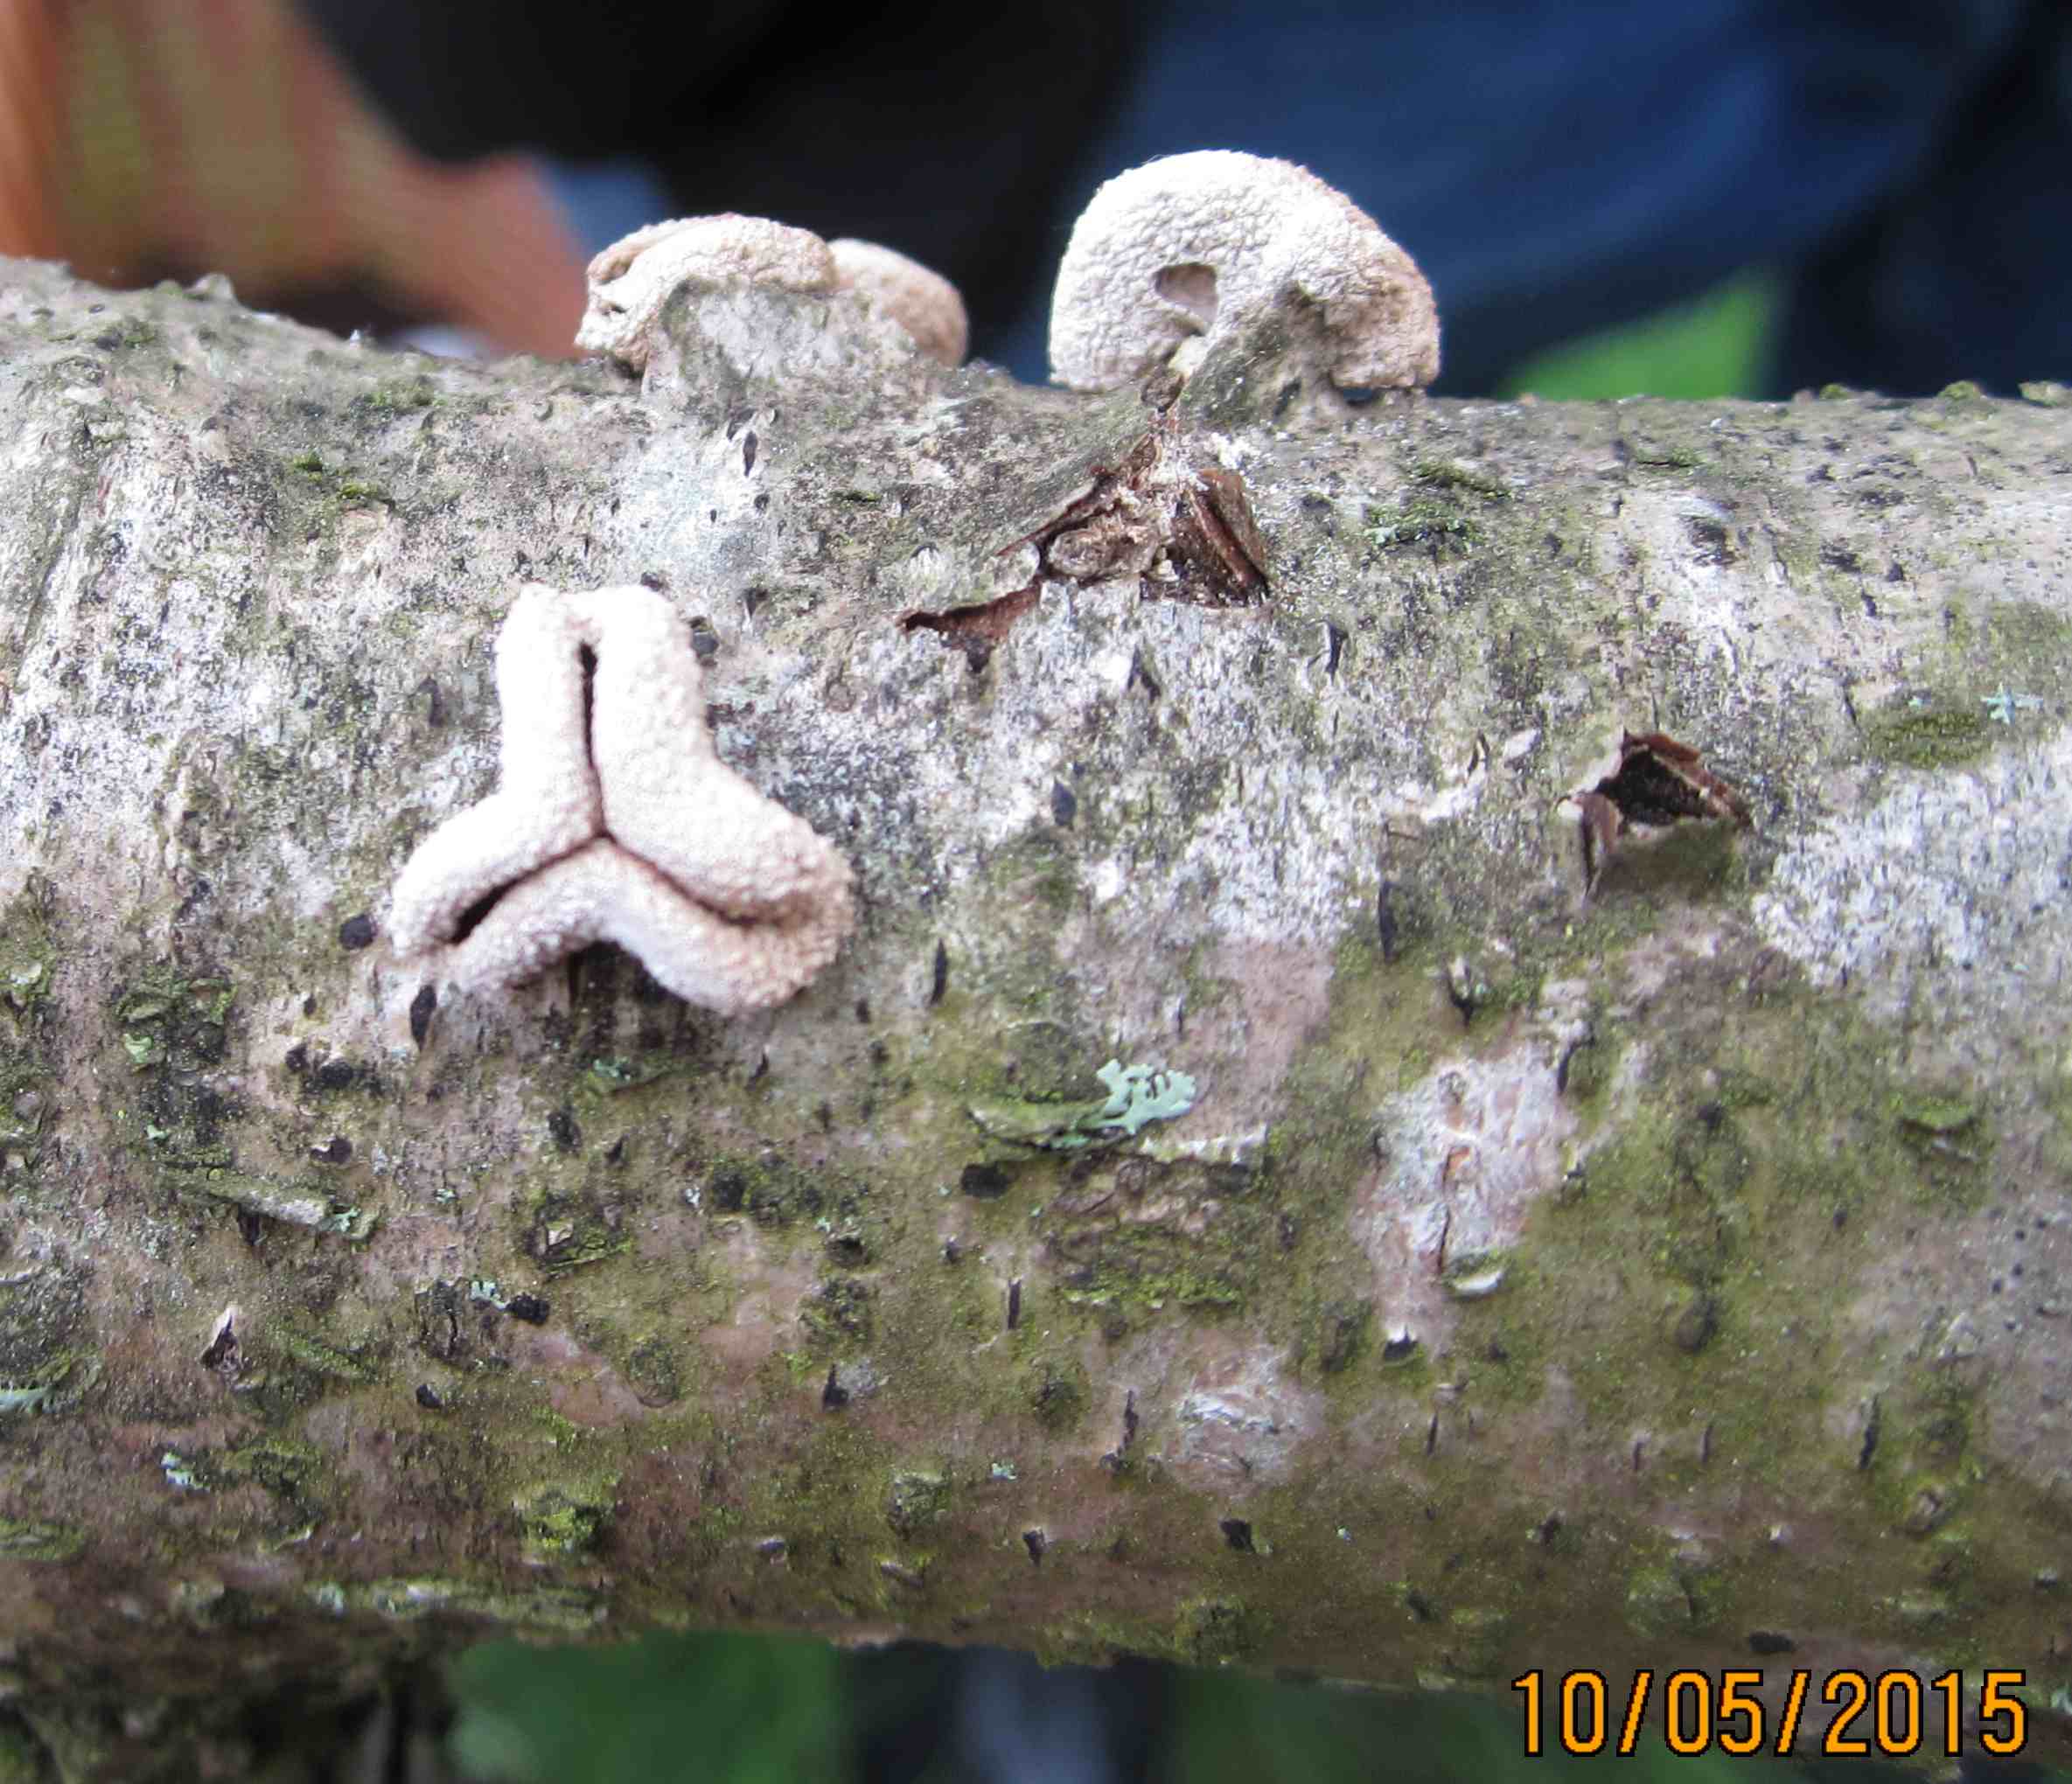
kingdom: Fungi
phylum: Ascomycota
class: Leotiomycetes
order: Helotiales
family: Cenangiaceae
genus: Encoelia
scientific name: Encoelia furfuracea
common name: hassel-læderskive
